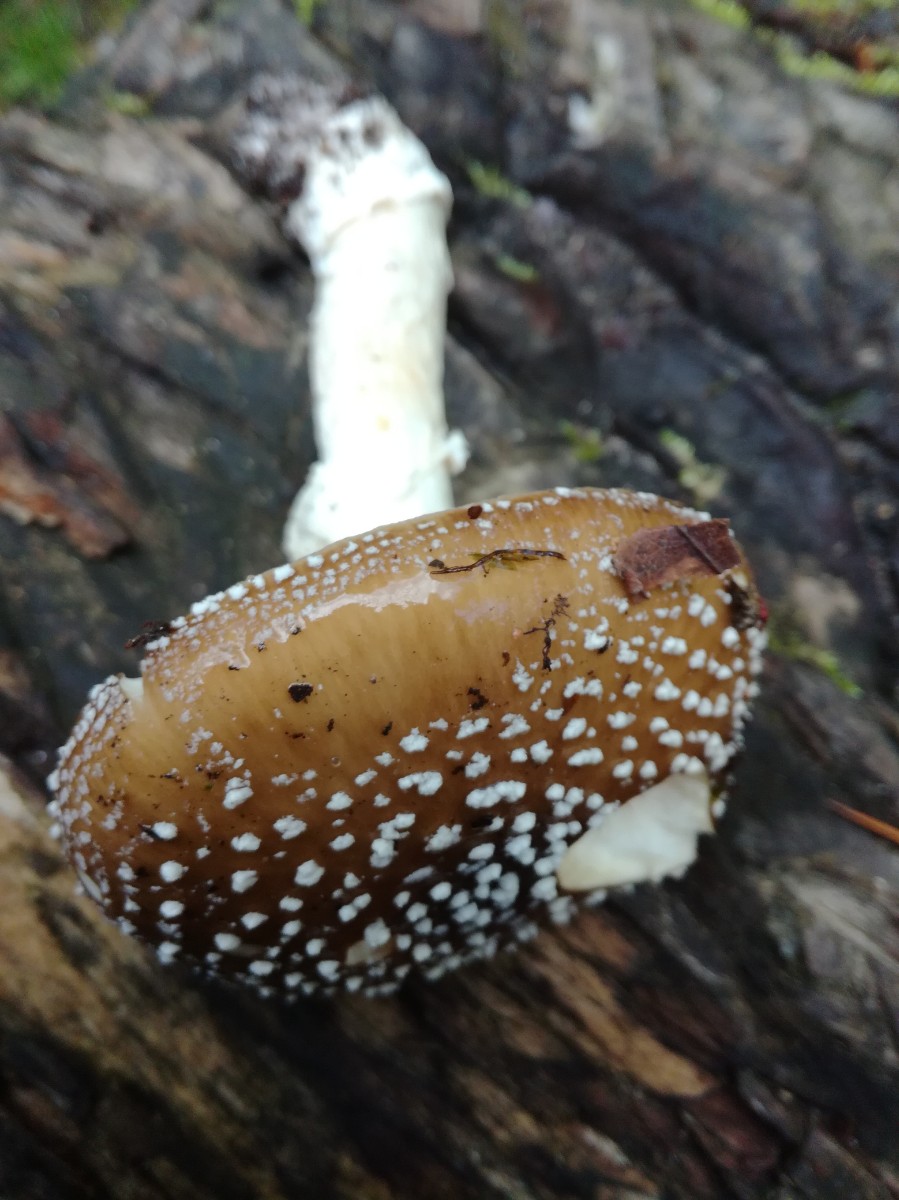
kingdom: Fungi
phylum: Basidiomycota
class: Agaricomycetes
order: Agaricales
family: Amanitaceae
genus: Amanita
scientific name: Amanita pantherina
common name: panter-fluesvamp
